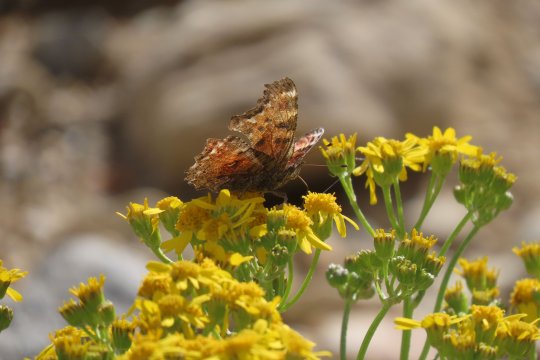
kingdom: Animalia
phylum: Arthropoda
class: Insecta
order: Lepidoptera
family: Nymphalidae
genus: Polygonia
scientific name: Polygonia gracilis
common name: Hoary Comma
